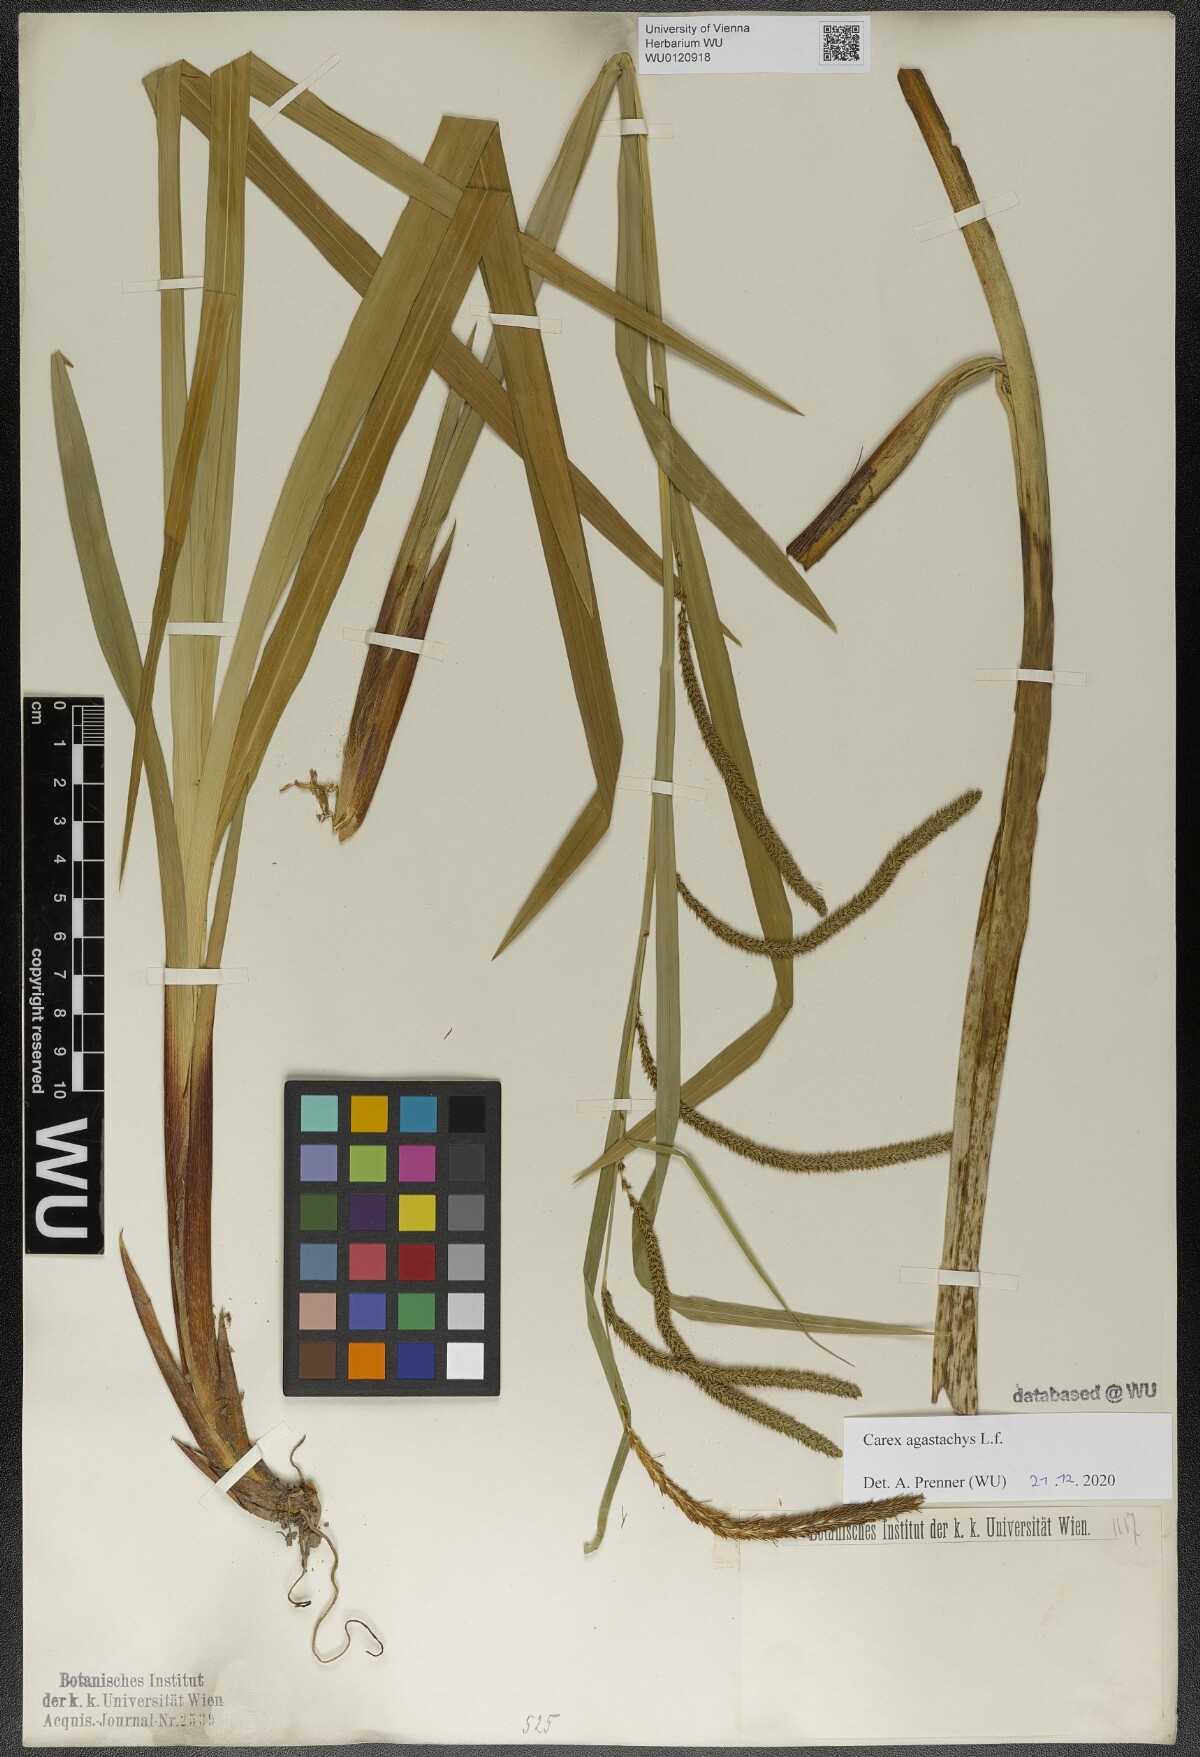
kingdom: Plantae
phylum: Tracheophyta
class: Liliopsida
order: Poales
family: Cyperaceae
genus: Carex
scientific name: Carex agastachys
